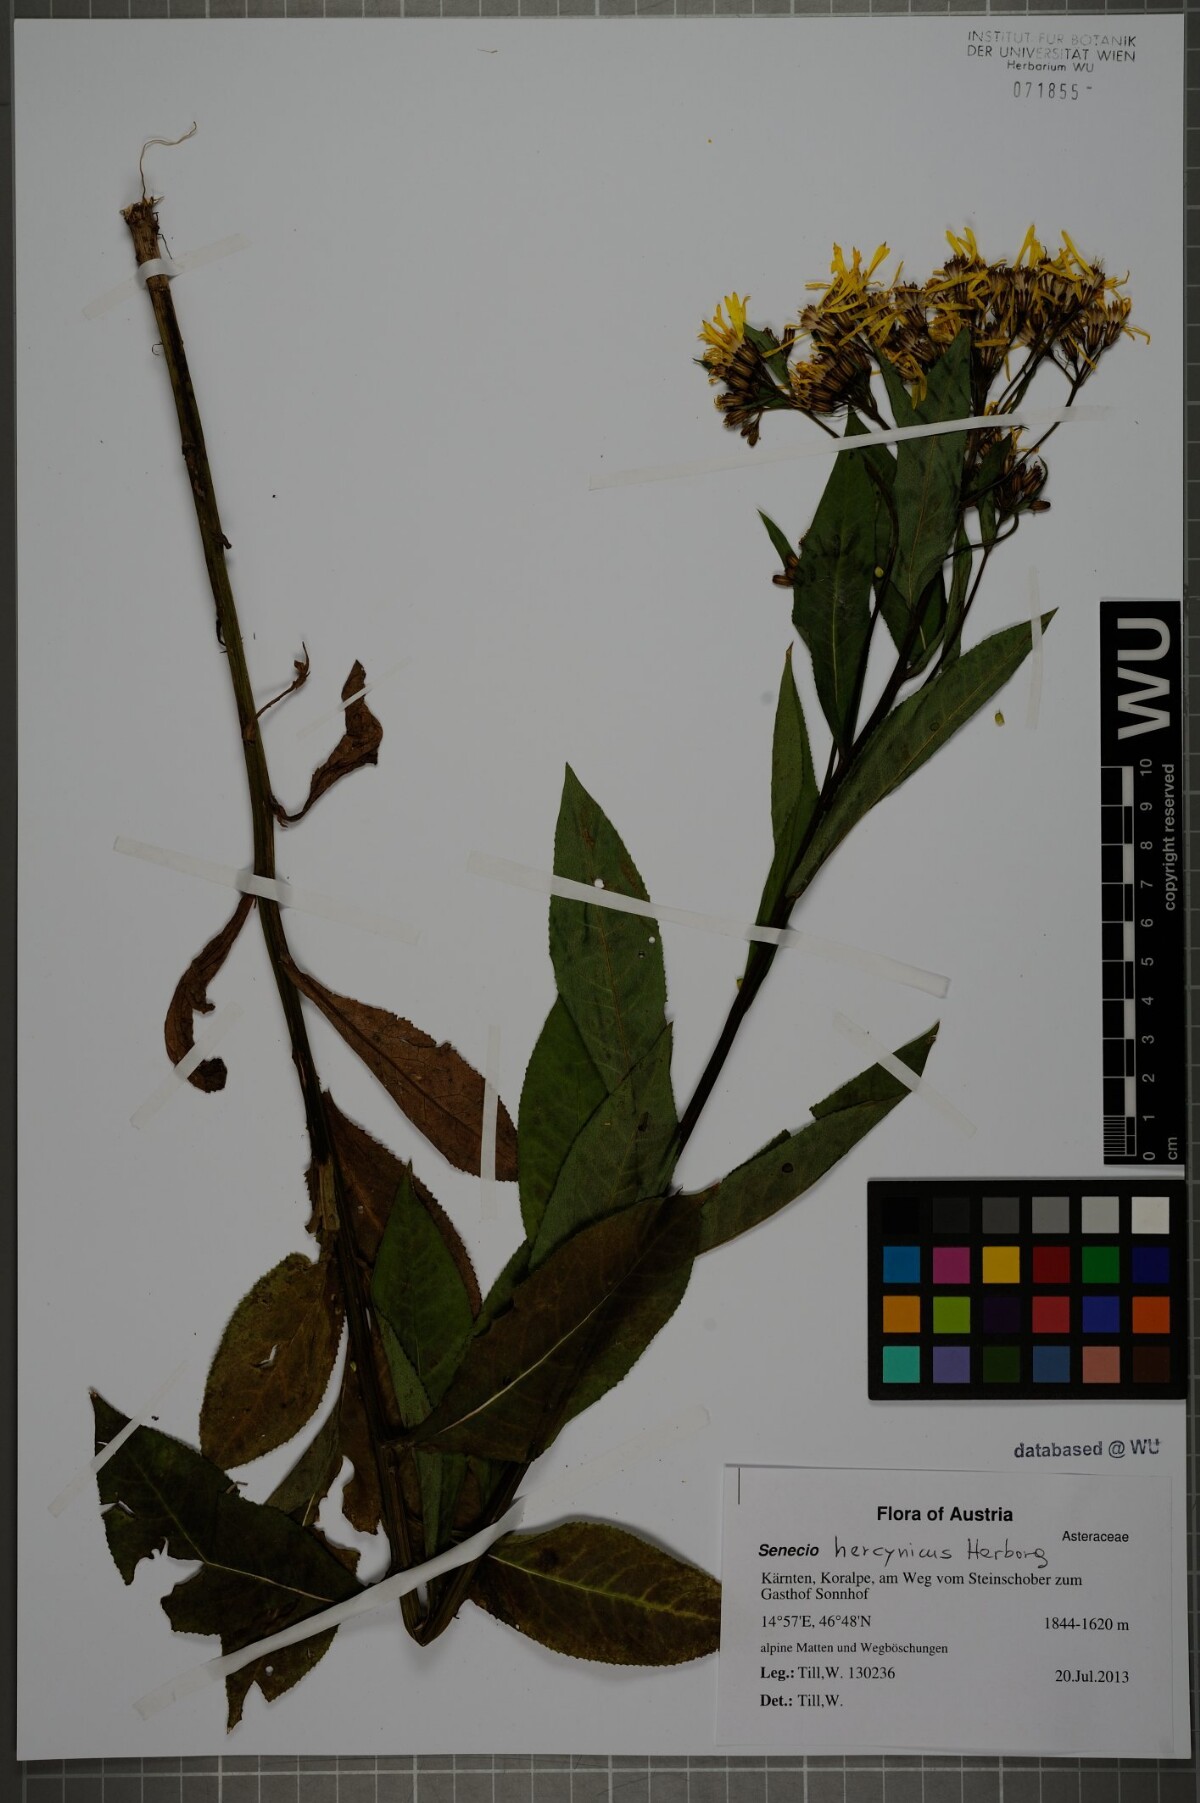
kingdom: Plantae
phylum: Tracheophyta
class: Magnoliopsida
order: Asterales
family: Asteraceae
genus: Senecio
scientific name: Senecio hercynicus
